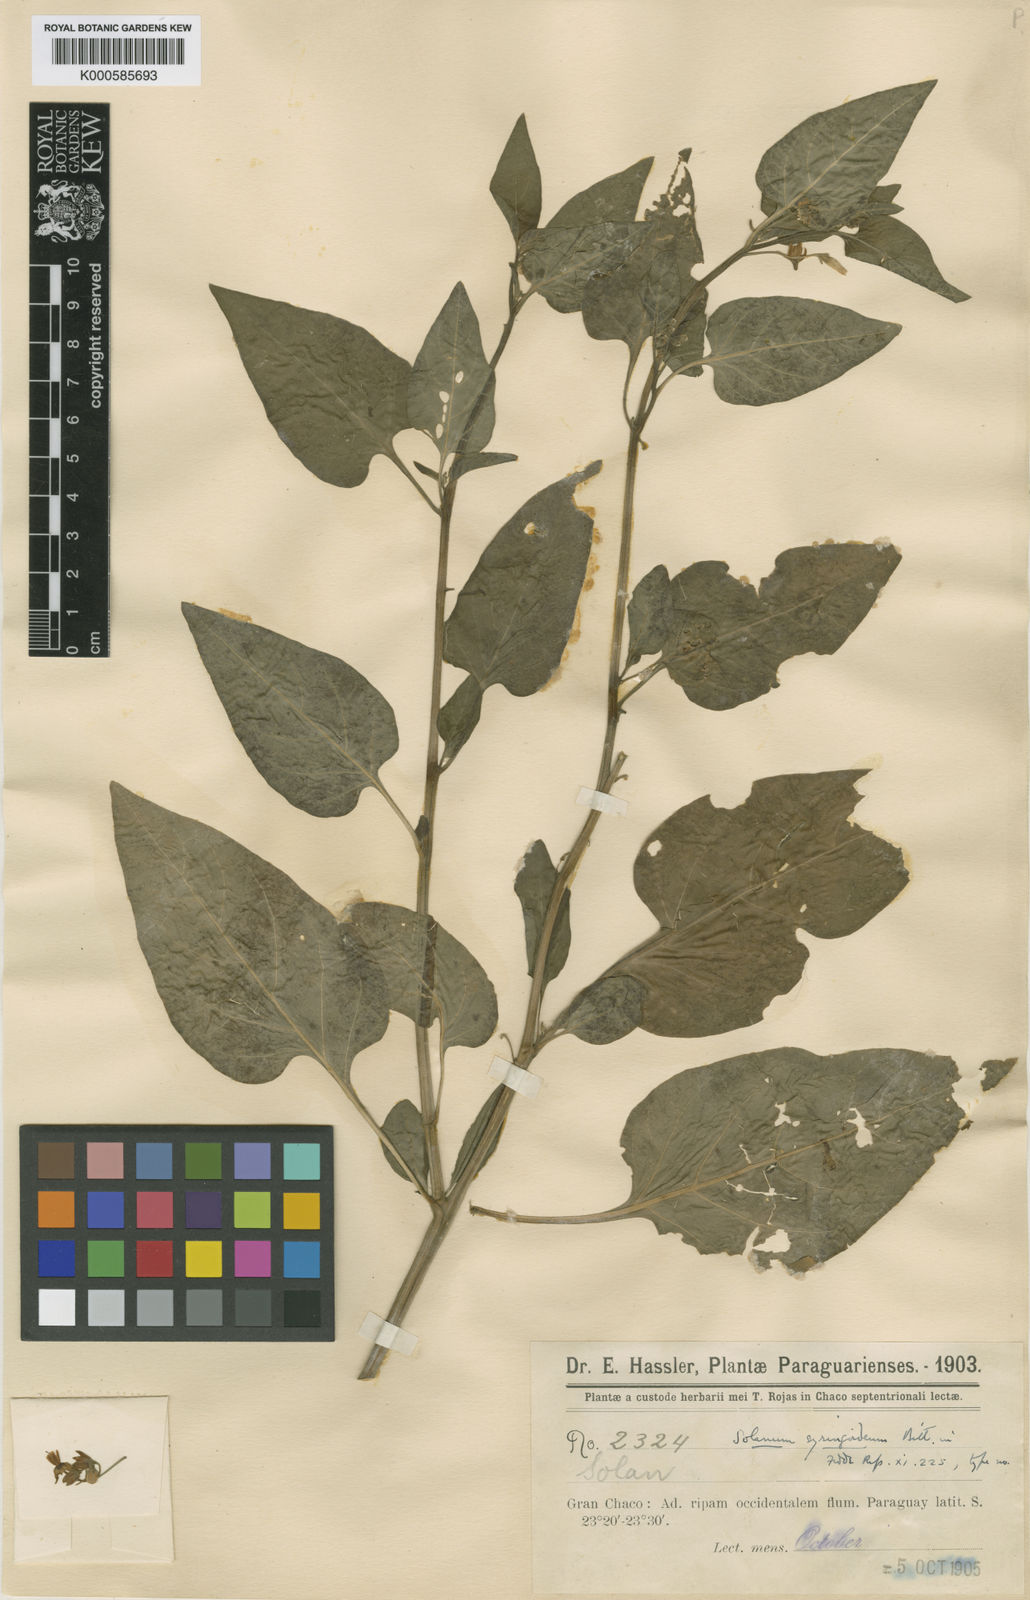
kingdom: Plantae
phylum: Tracheophyta
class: Magnoliopsida
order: Solanales
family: Solanaceae
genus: Solanum
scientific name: Solanum pilcomayense
